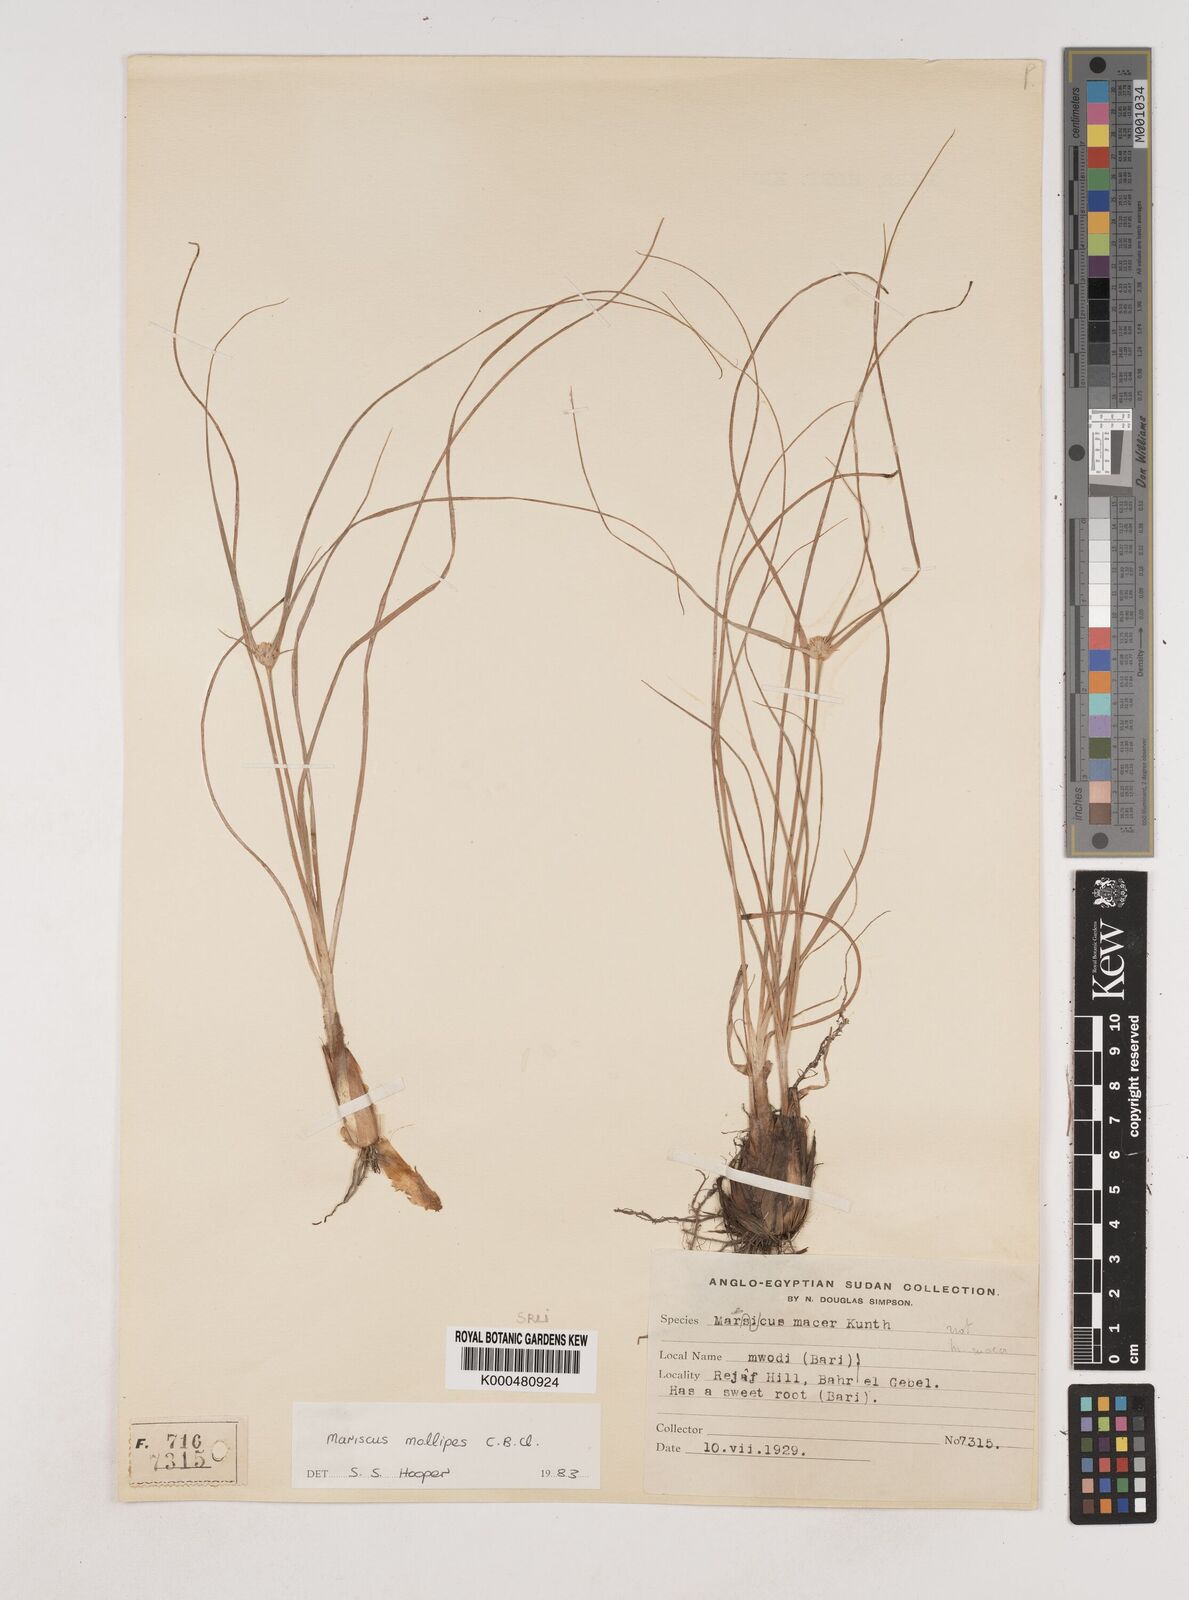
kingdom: Plantae
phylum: Tracheophyta
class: Liliopsida
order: Poales
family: Cyperaceae
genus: Cyperus
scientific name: Cyperus mollipes
